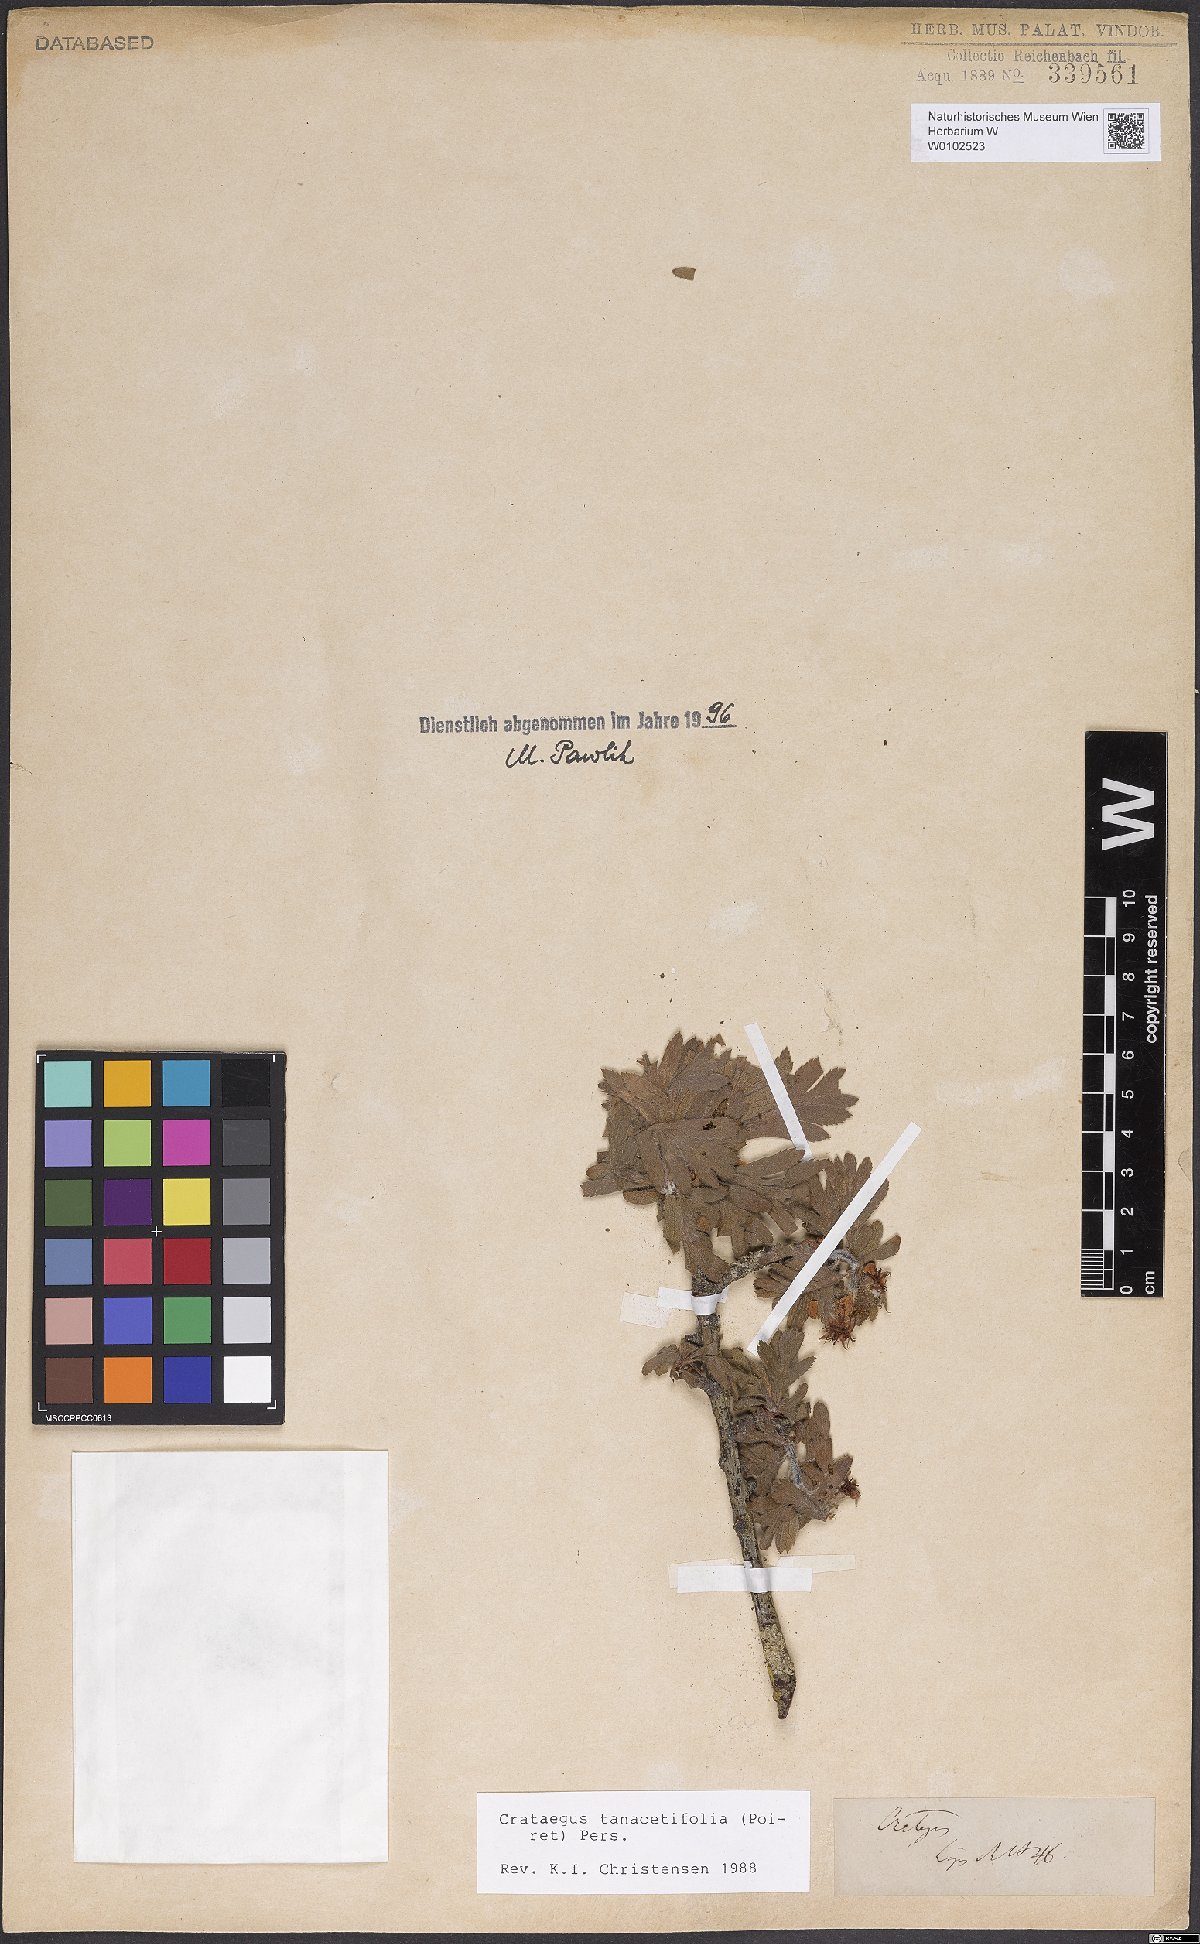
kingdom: Plantae
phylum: Tracheophyta
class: Magnoliopsida
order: Rosales
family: Rosaceae
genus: Crataegus
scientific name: Crataegus tanacetifolia
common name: Tansy-leaved thorn
